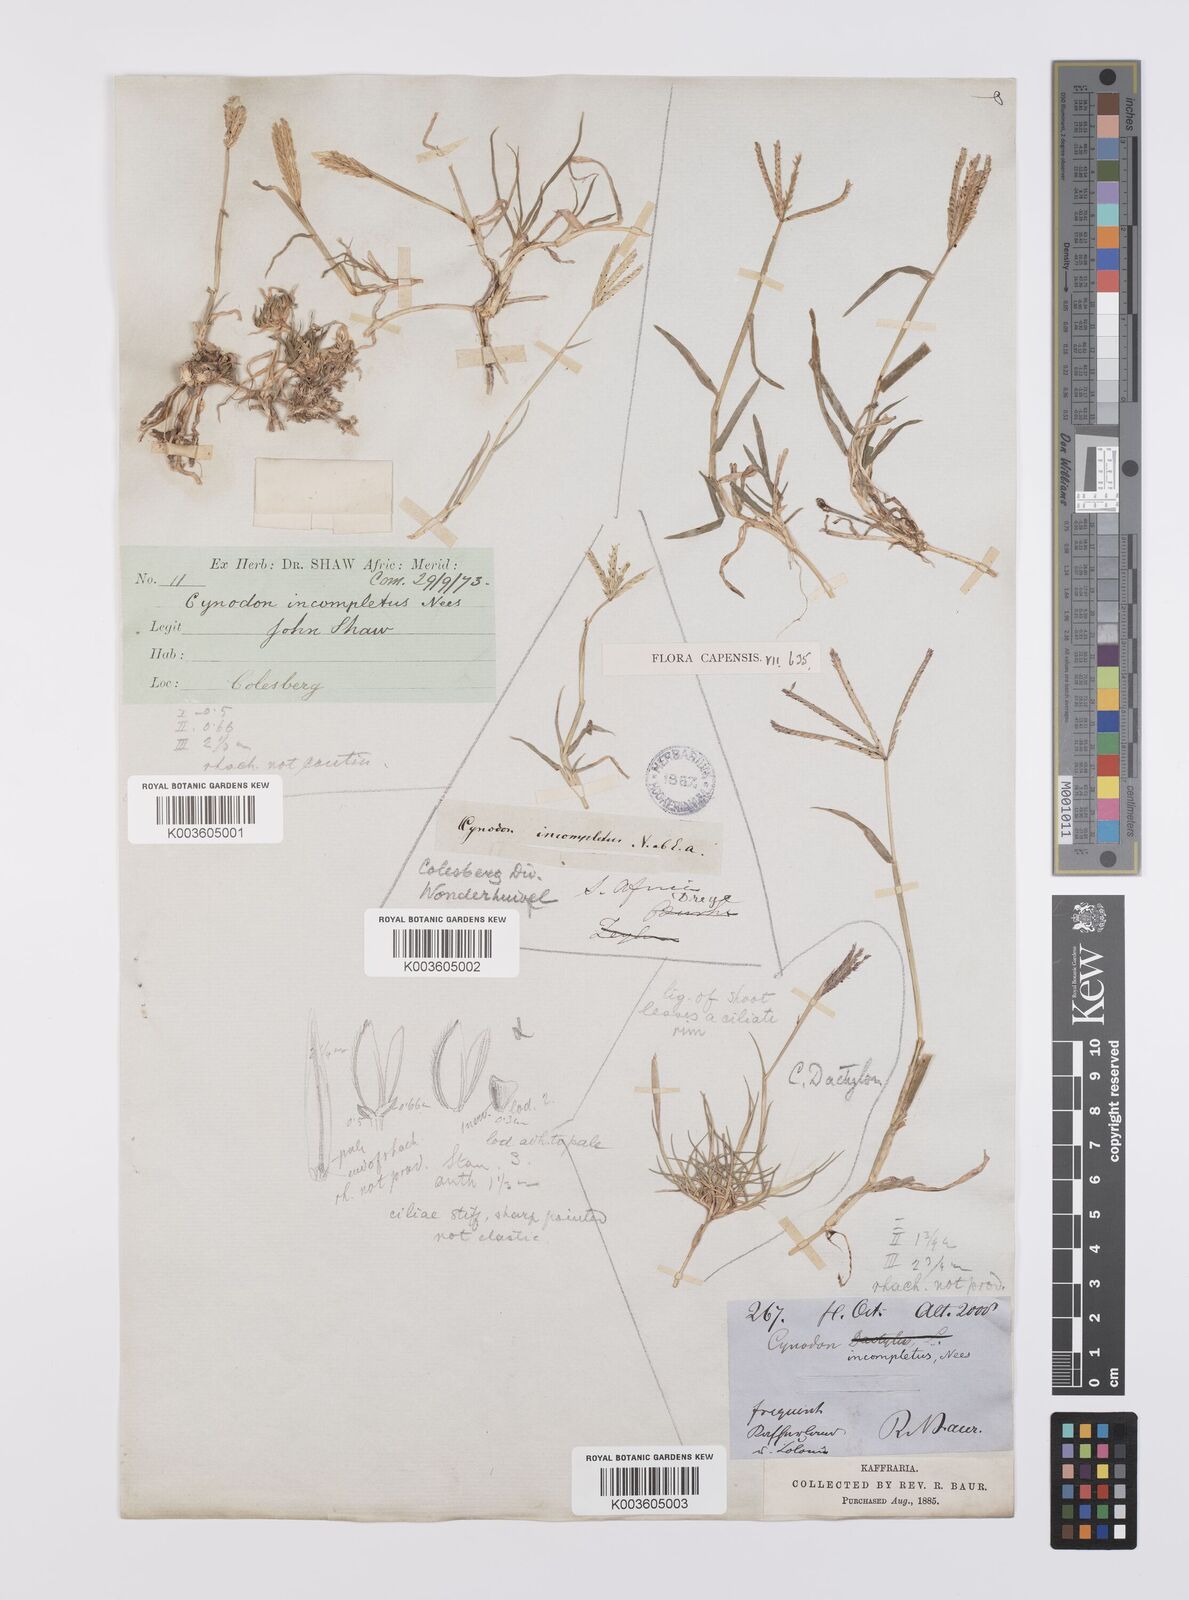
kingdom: Plantae
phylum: Tracheophyta
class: Liliopsida
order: Poales
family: Poaceae
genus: Cynodon
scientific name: Cynodon incompletus
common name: African bermuda-grass
